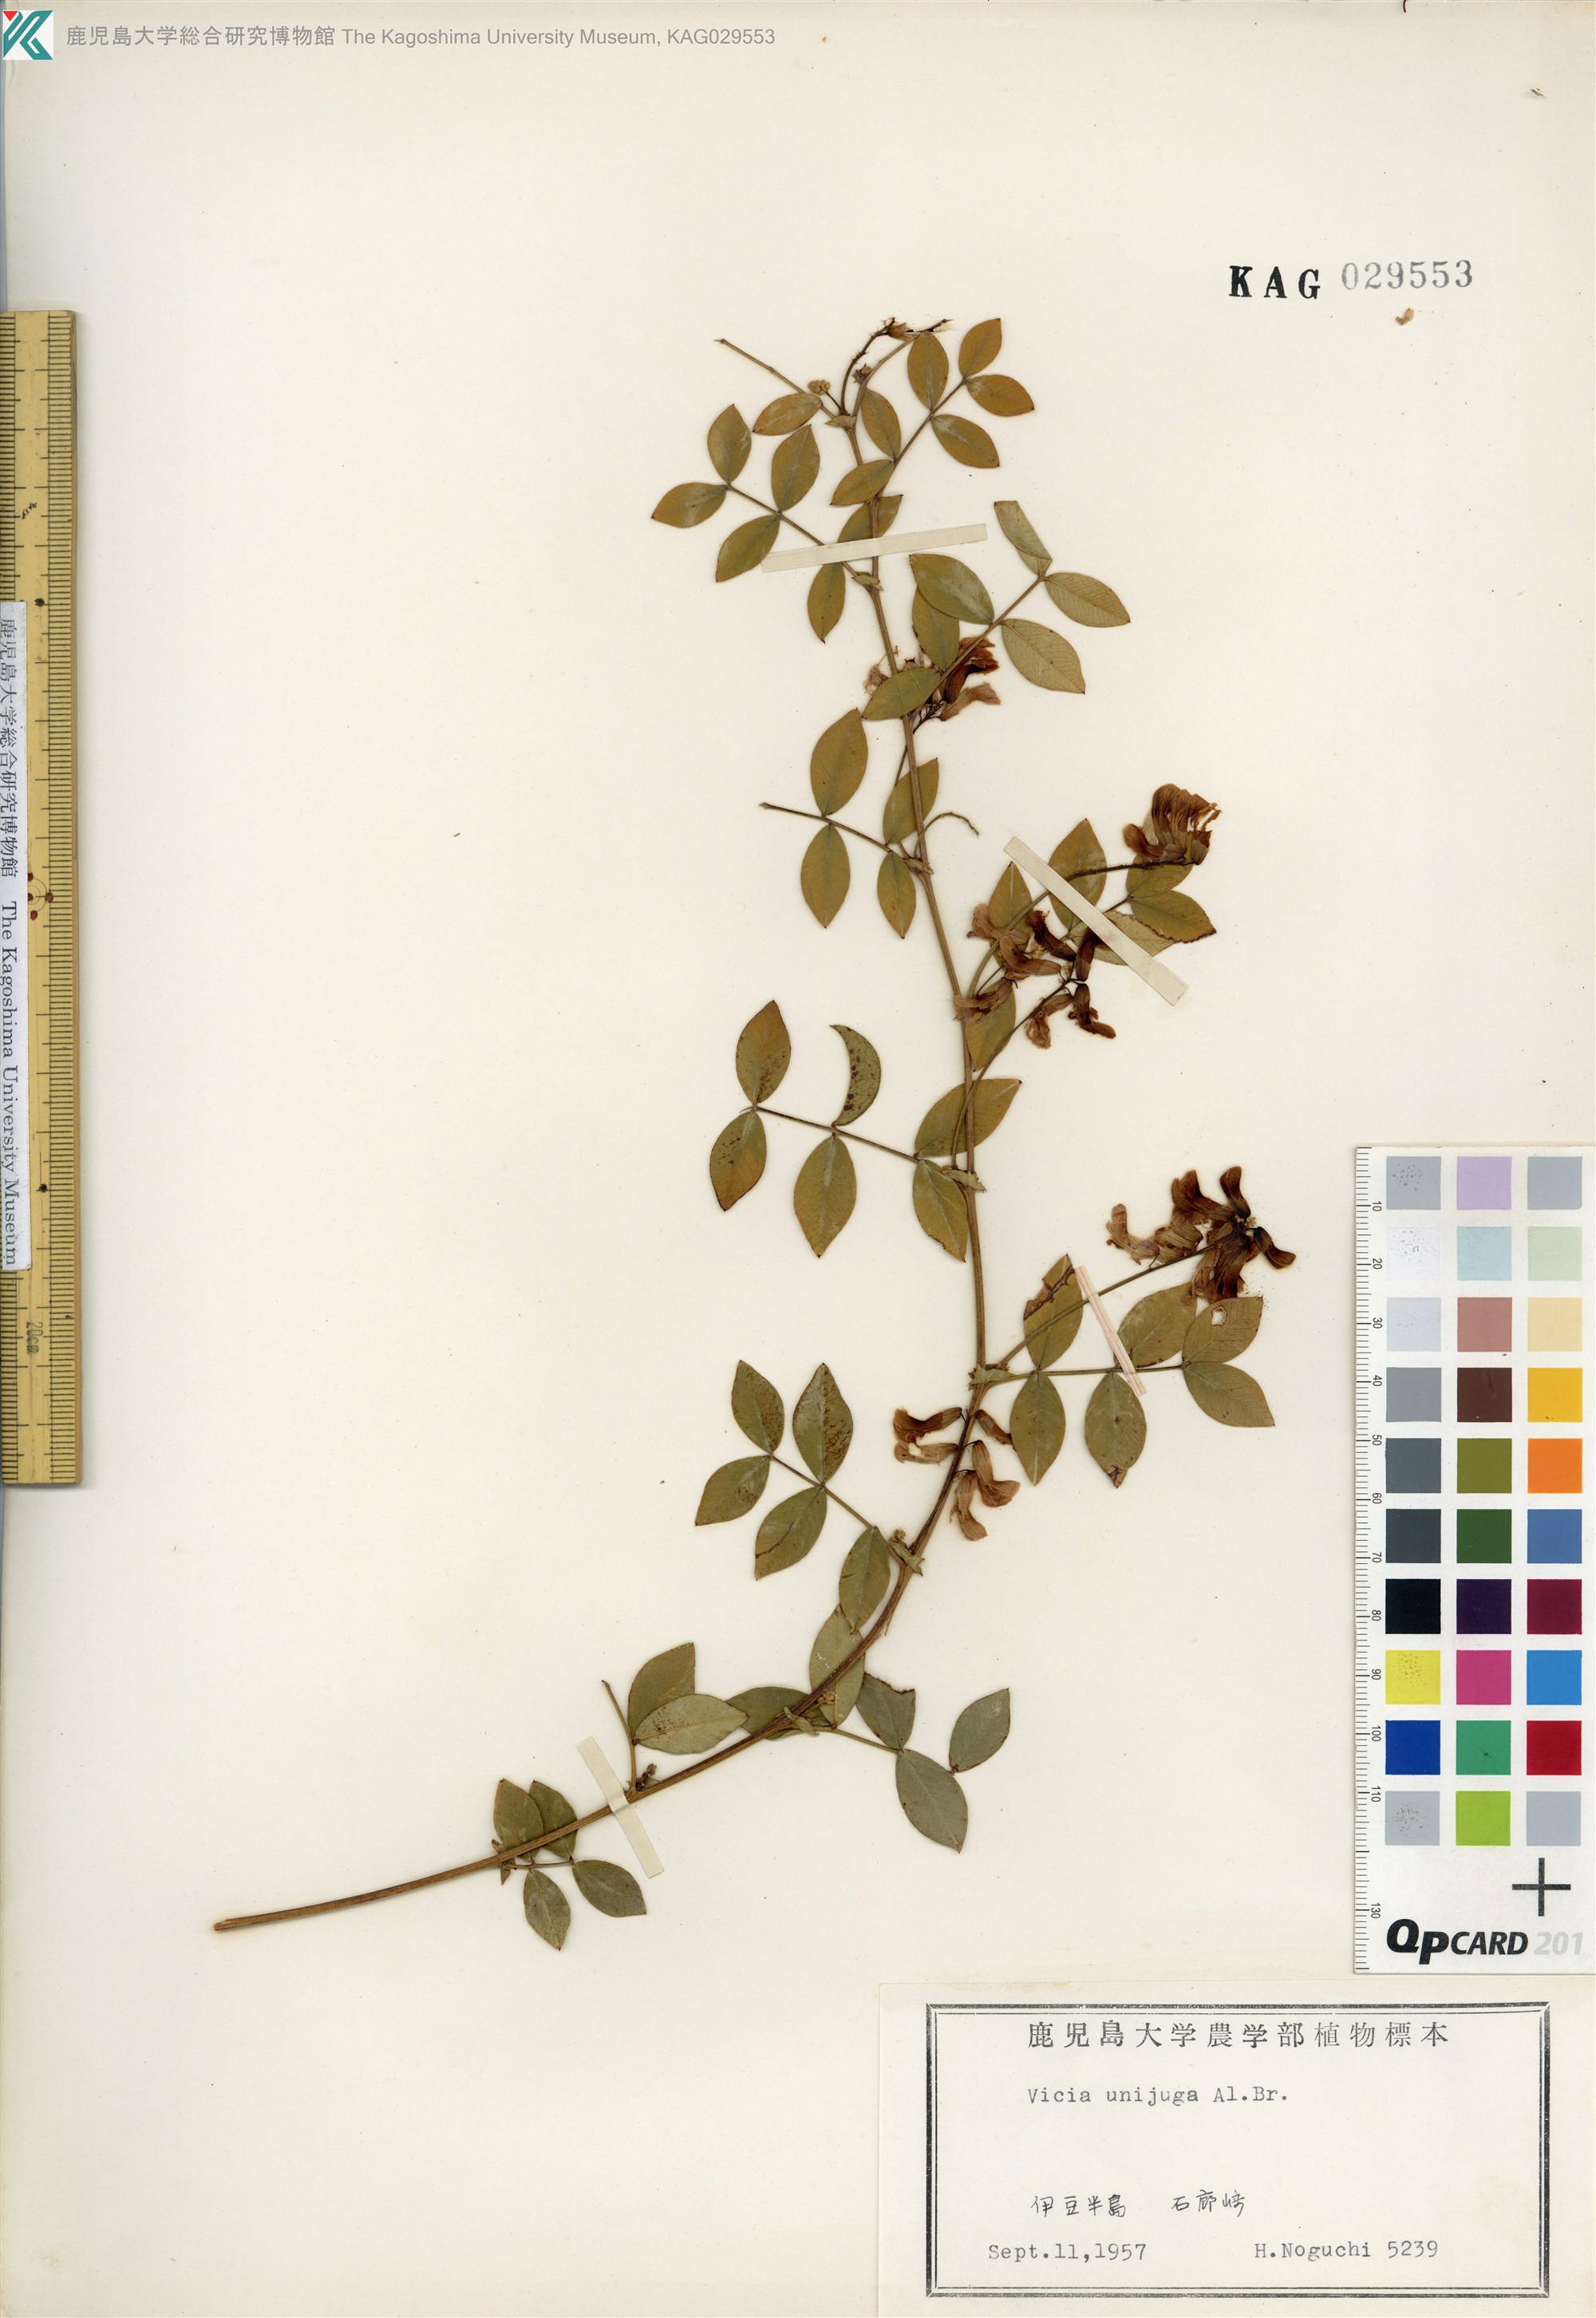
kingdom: Plantae
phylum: Tracheophyta
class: Magnoliopsida
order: Fabales
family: Fabaceae
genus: Vicia
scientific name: Vicia nipponica
